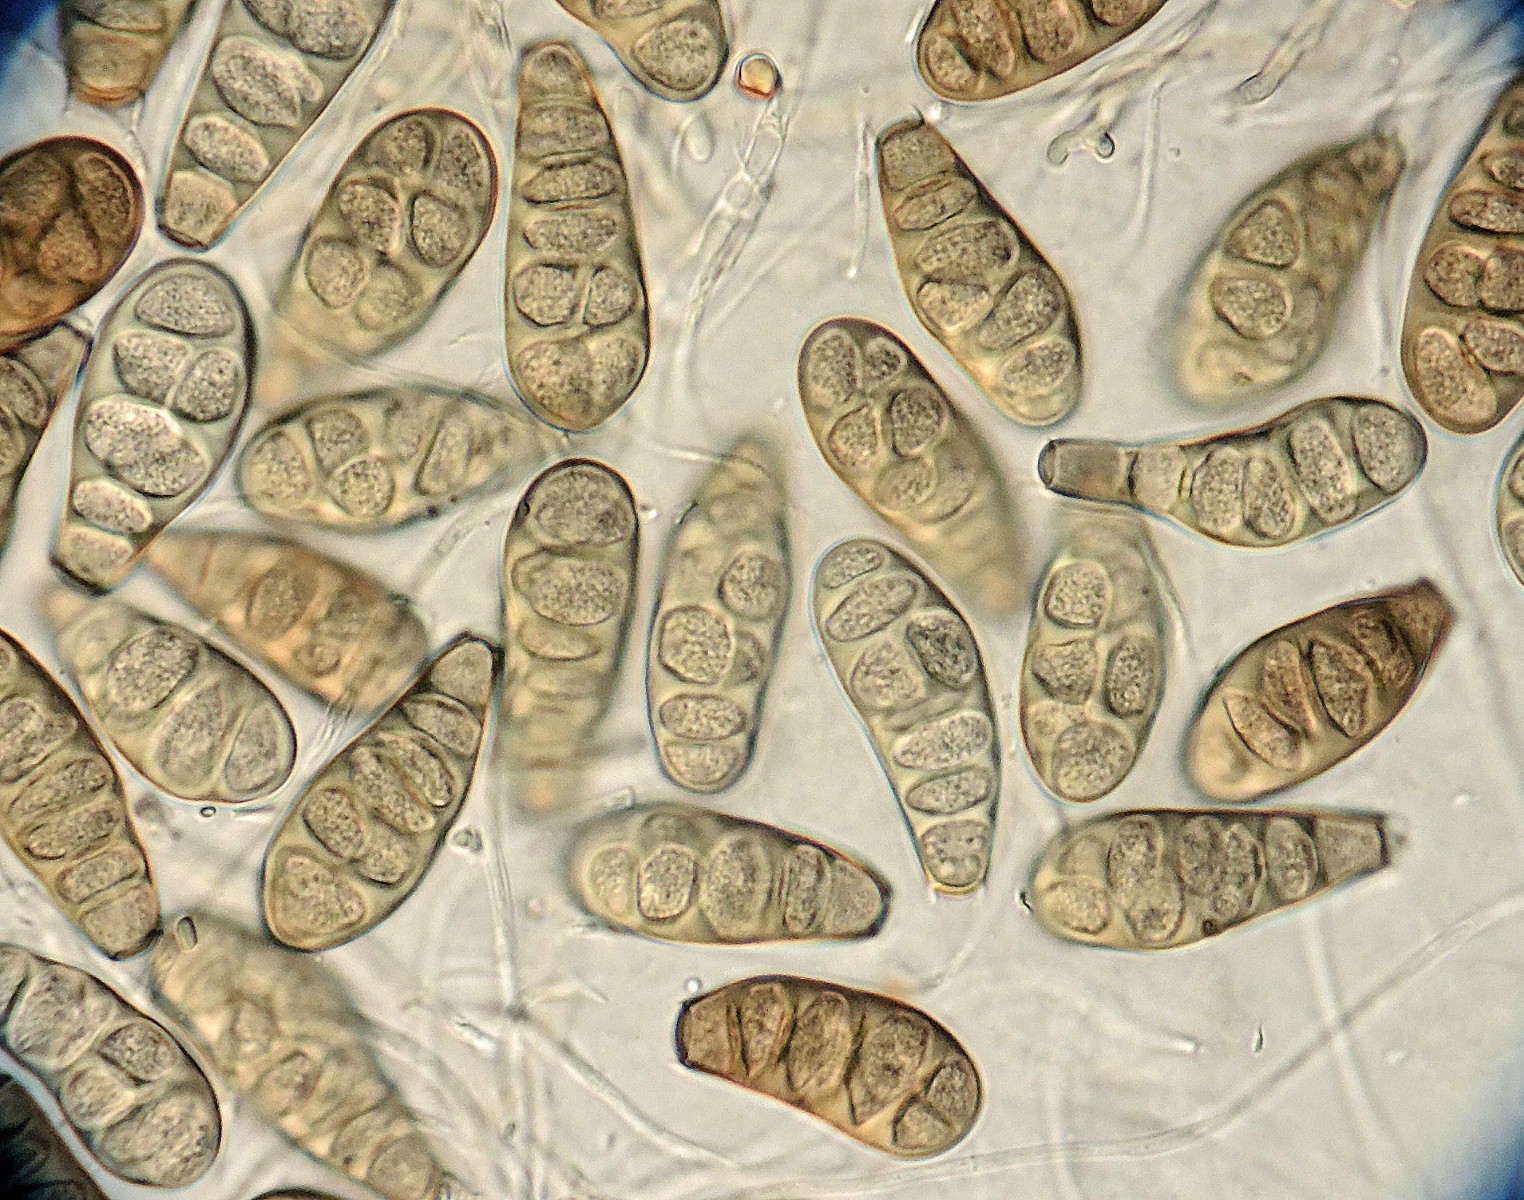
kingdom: Fungi
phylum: Ascomycota
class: Sordariomycetes
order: Diaporthales
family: Melanconidaceae
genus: Prosthecium
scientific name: Prosthecium pyriforme
